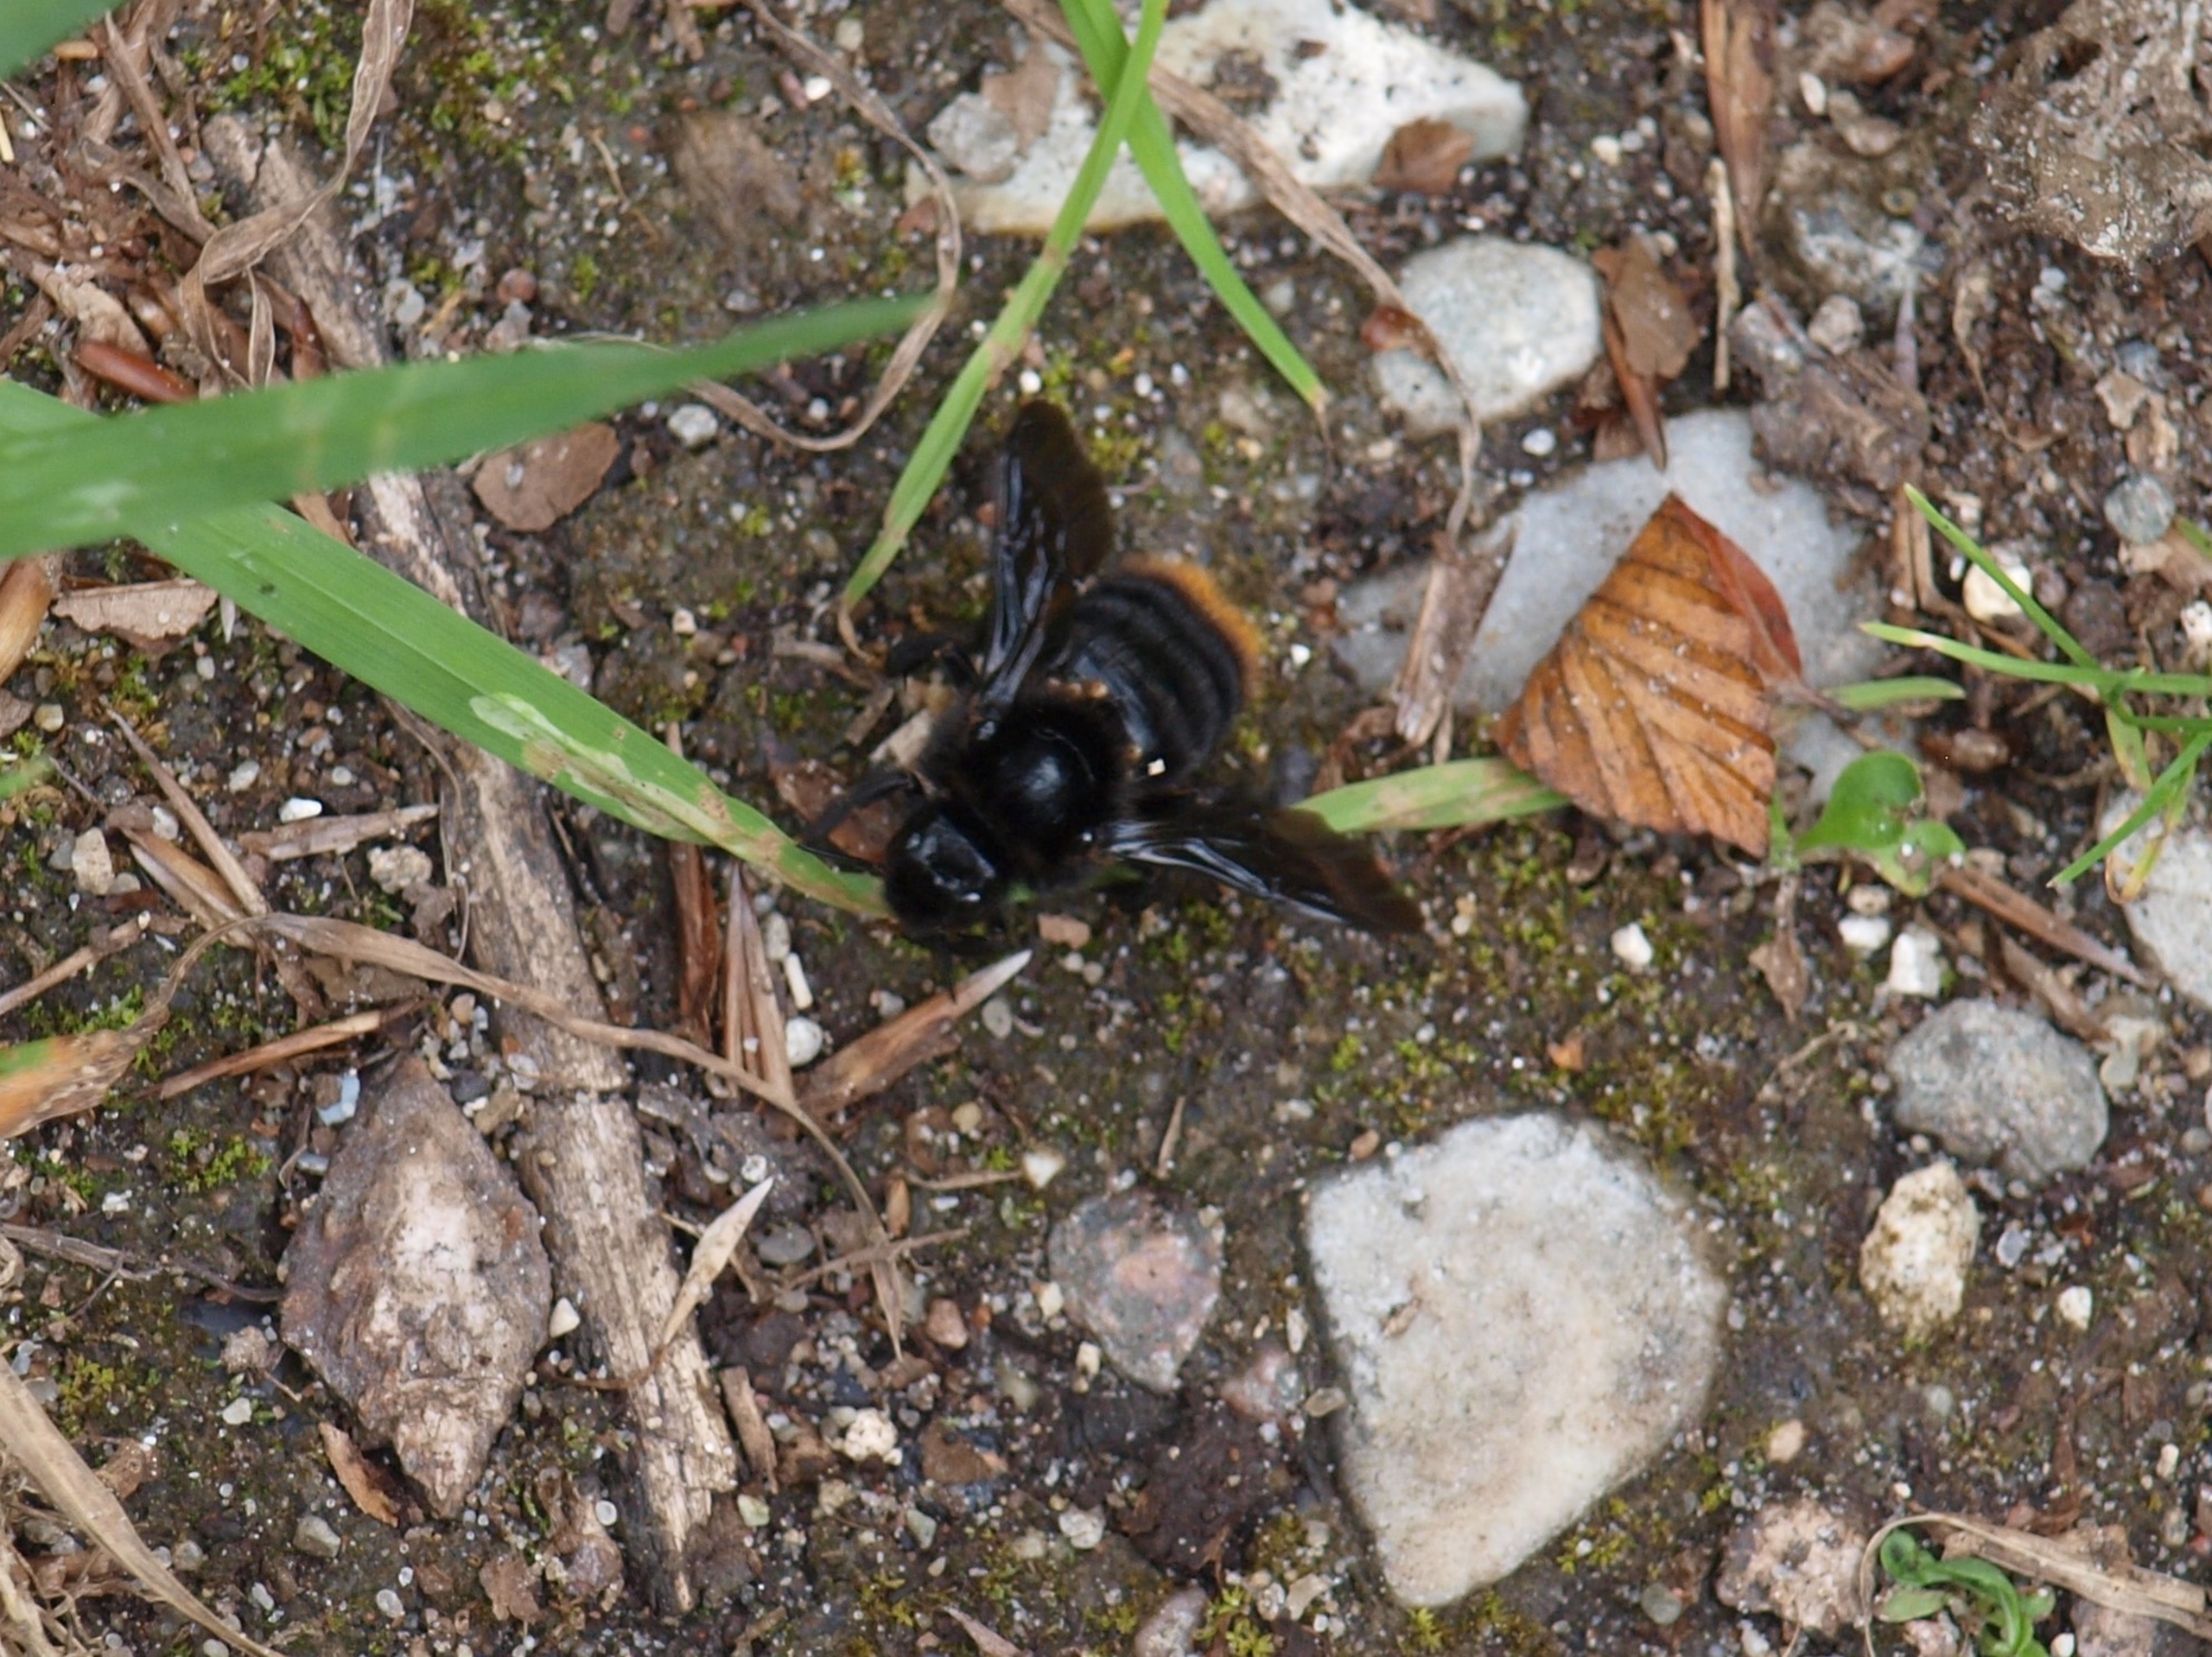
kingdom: Animalia
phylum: Arthropoda
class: Insecta
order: Hymenoptera
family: Apidae
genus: Bombus
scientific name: Bombus rupestris
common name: Stensnyltehumle
